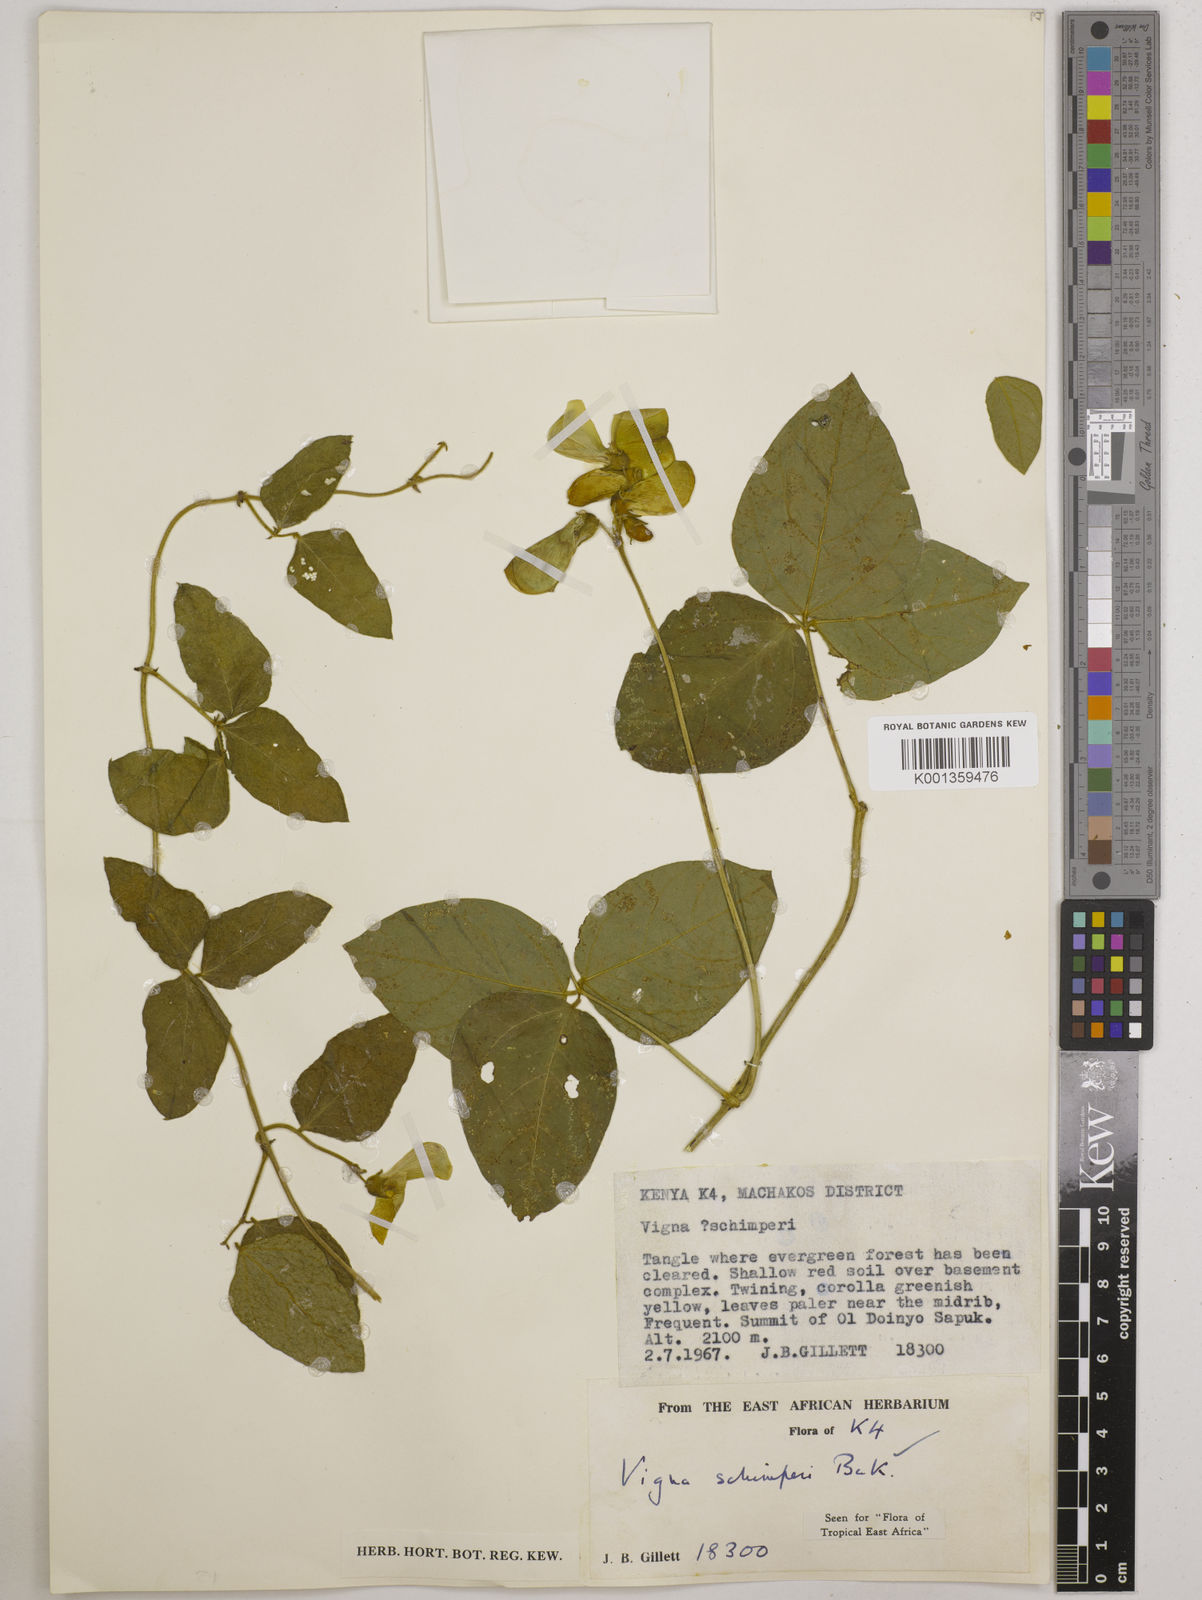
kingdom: Plantae
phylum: Tracheophyta
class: Magnoliopsida
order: Fabales
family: Fabaceae
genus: Vigna
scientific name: Vigna schimperi
